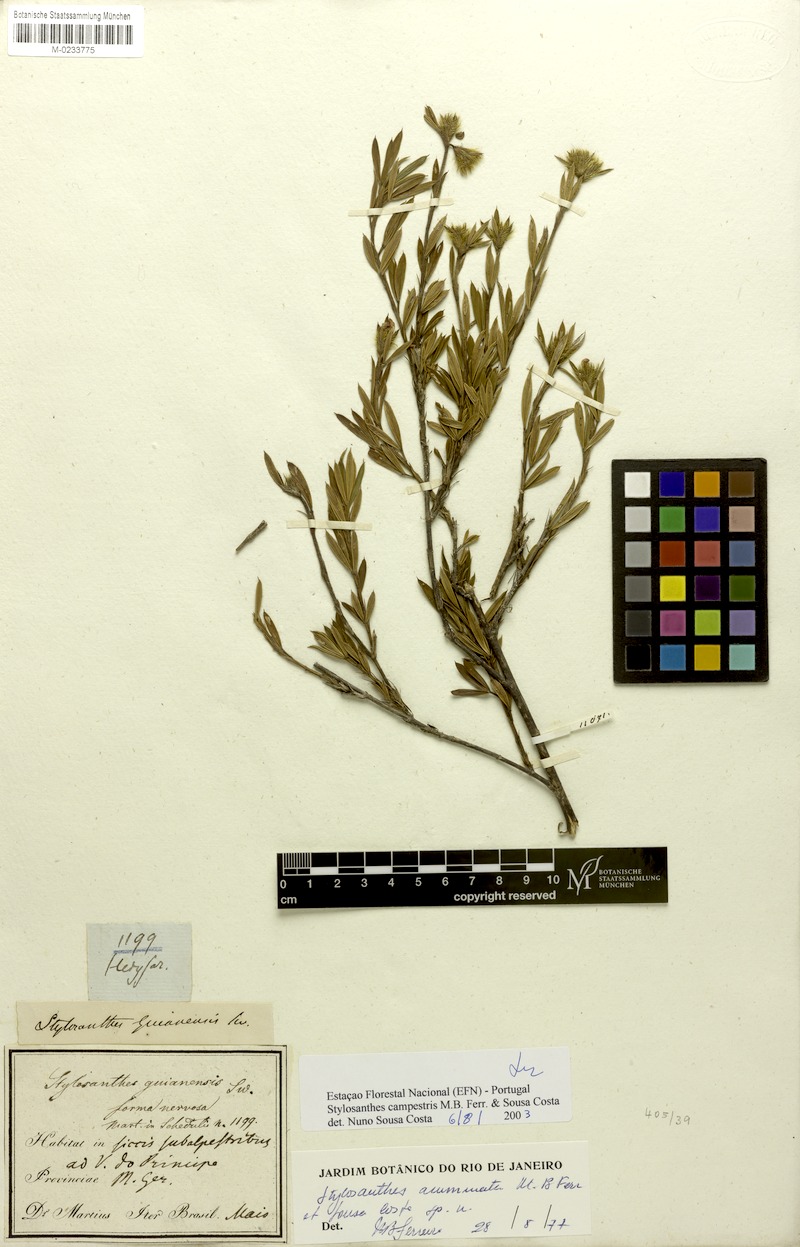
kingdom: Plantae
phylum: Tracheophyta
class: Magnoliopsida
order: Fabales
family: Fabaceae
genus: Stylosanthes
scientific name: Stylosanthes campestris
